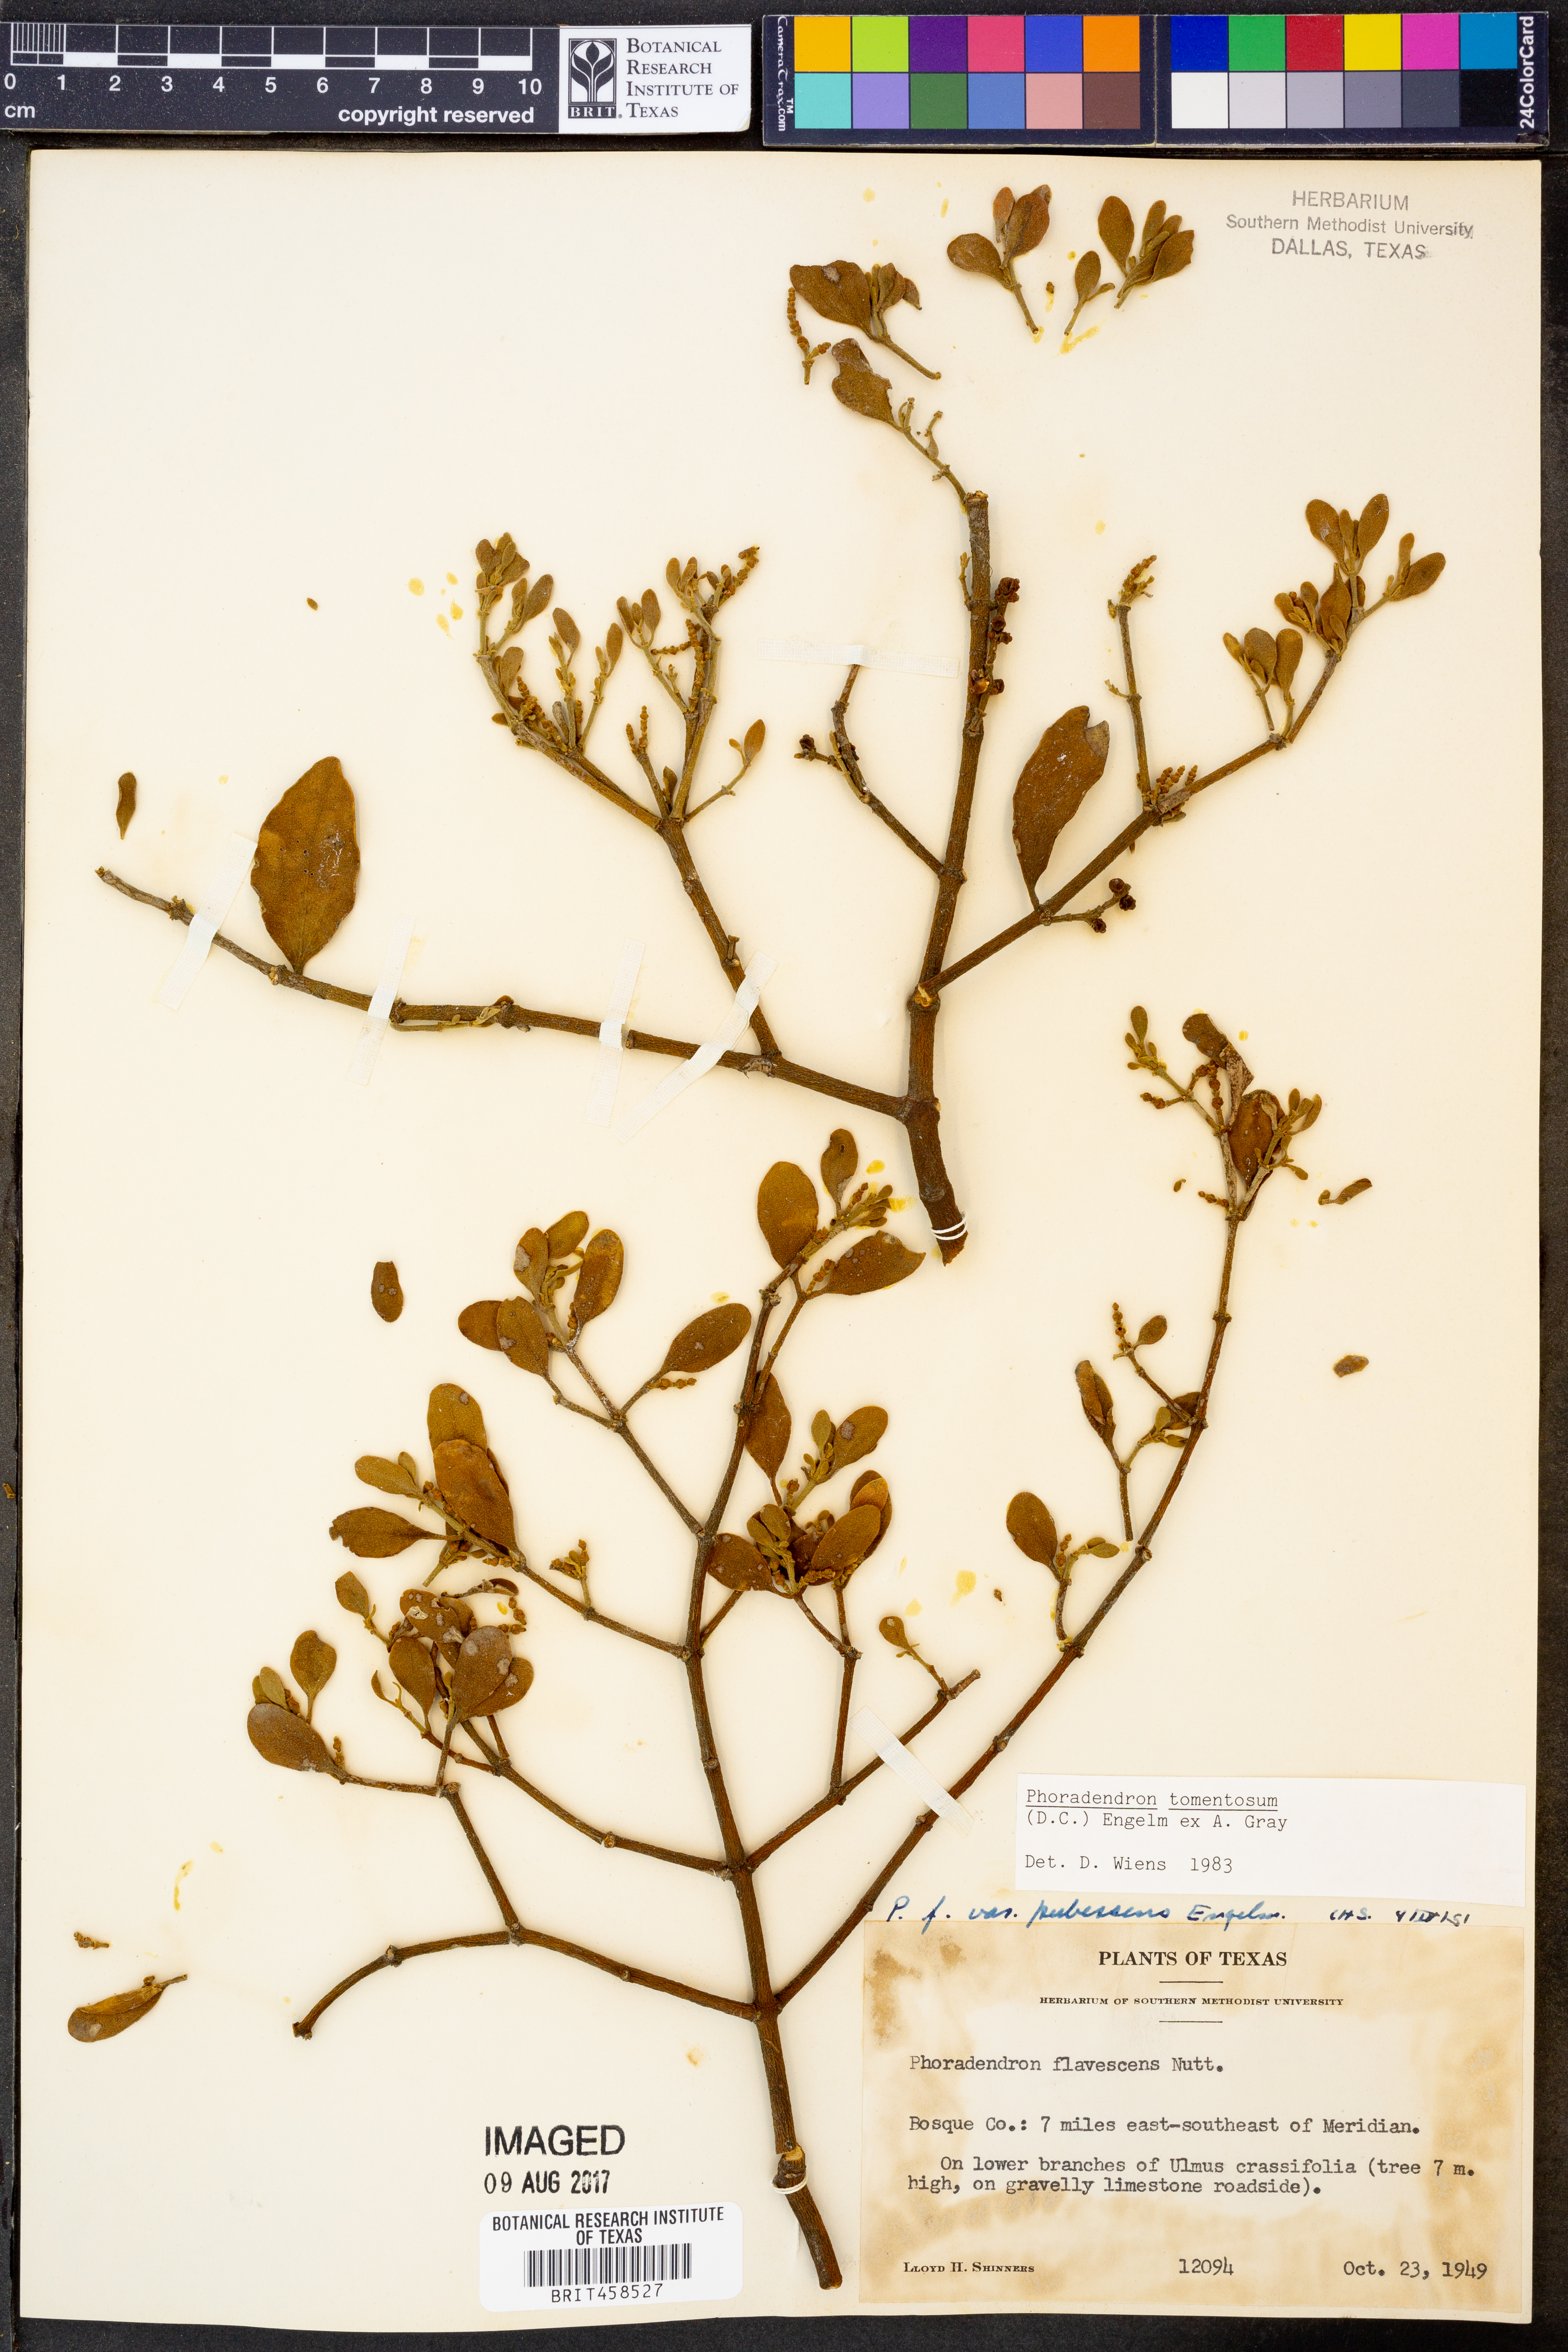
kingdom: Plantae
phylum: Tracheophyta
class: Magnoliopsida
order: Santalales
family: Viscaceae
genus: Phoradendron
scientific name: Phoradendron leucarpum
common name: Pacific mistletoe
